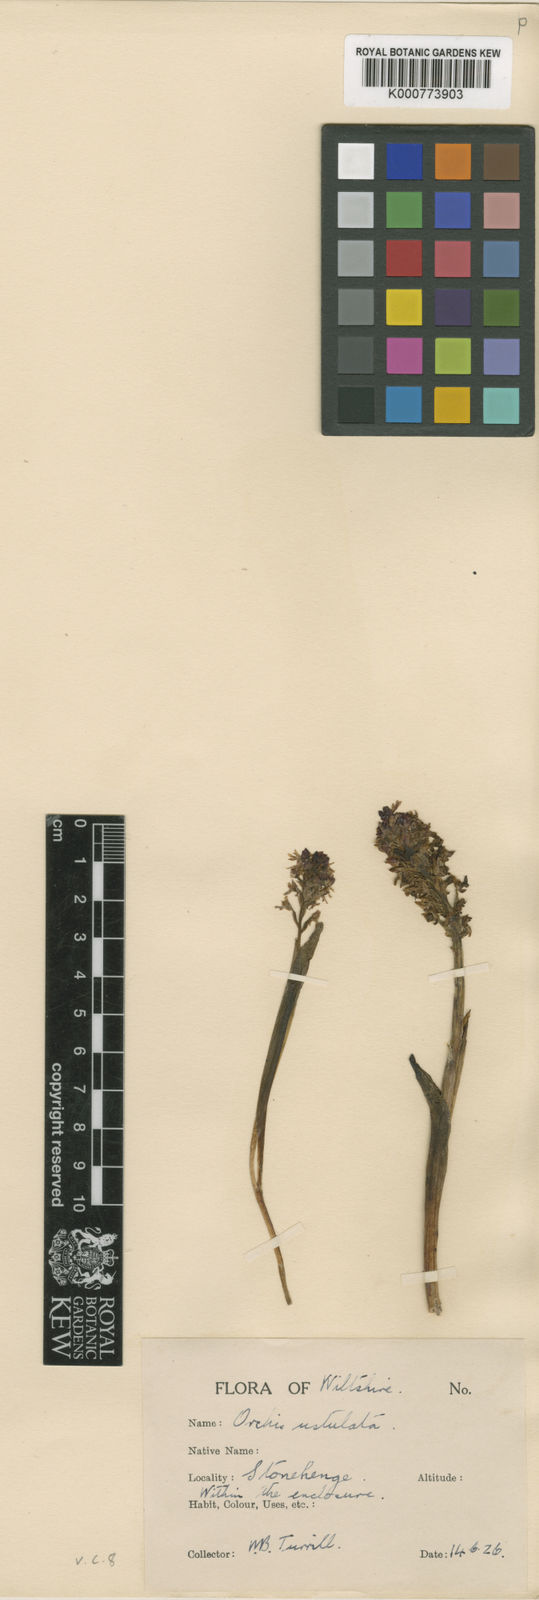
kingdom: Plantae
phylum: Tracheophyta
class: Liliopsida
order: Asparagales
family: Orchidaceae
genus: Neotinea
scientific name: Neotinea ustulata
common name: Burnt orchid
